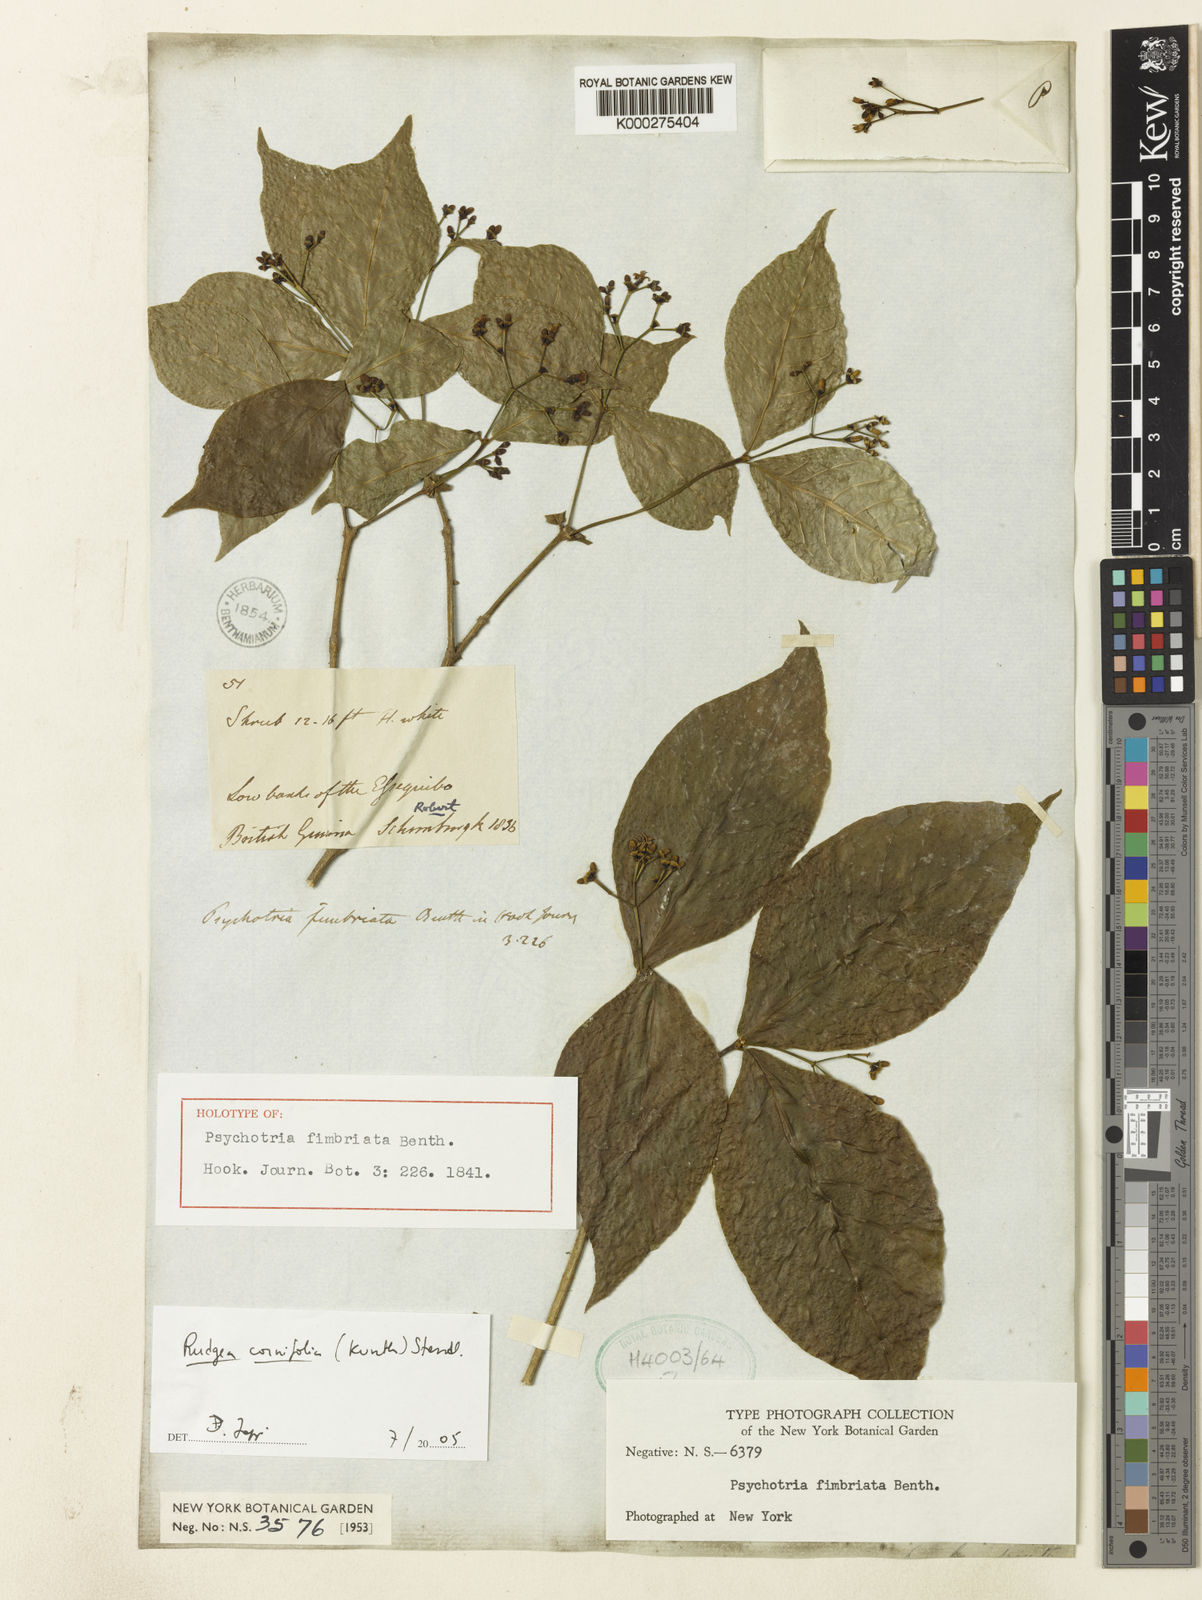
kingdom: Plantae
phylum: Tracheophyta
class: Magnoliopsida
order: Gentianales
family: Rubiaceae
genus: Rudgea
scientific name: Rudgea cornifolia
